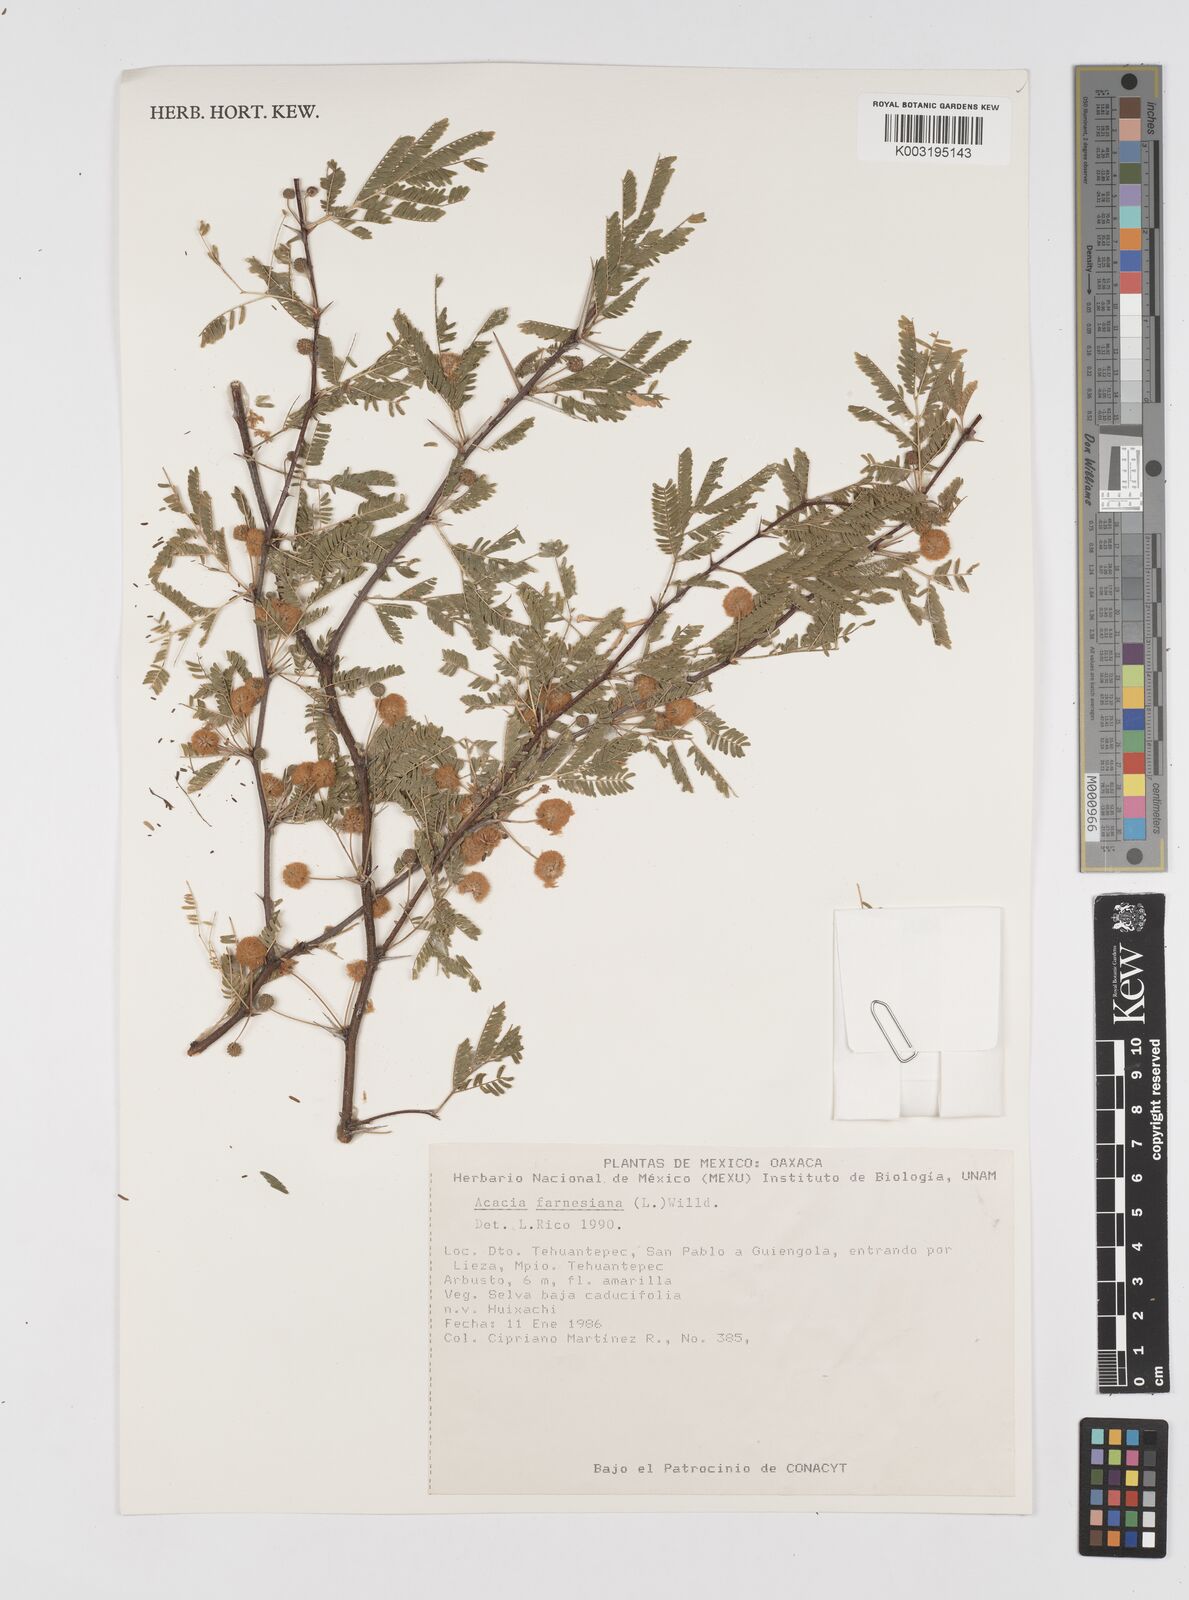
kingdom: Plantae
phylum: Tracheophyta
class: Magnoliopsida
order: Fabales
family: Fabaceae
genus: Vachellia
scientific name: Vachellia farnesiana
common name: Sweet acacia
